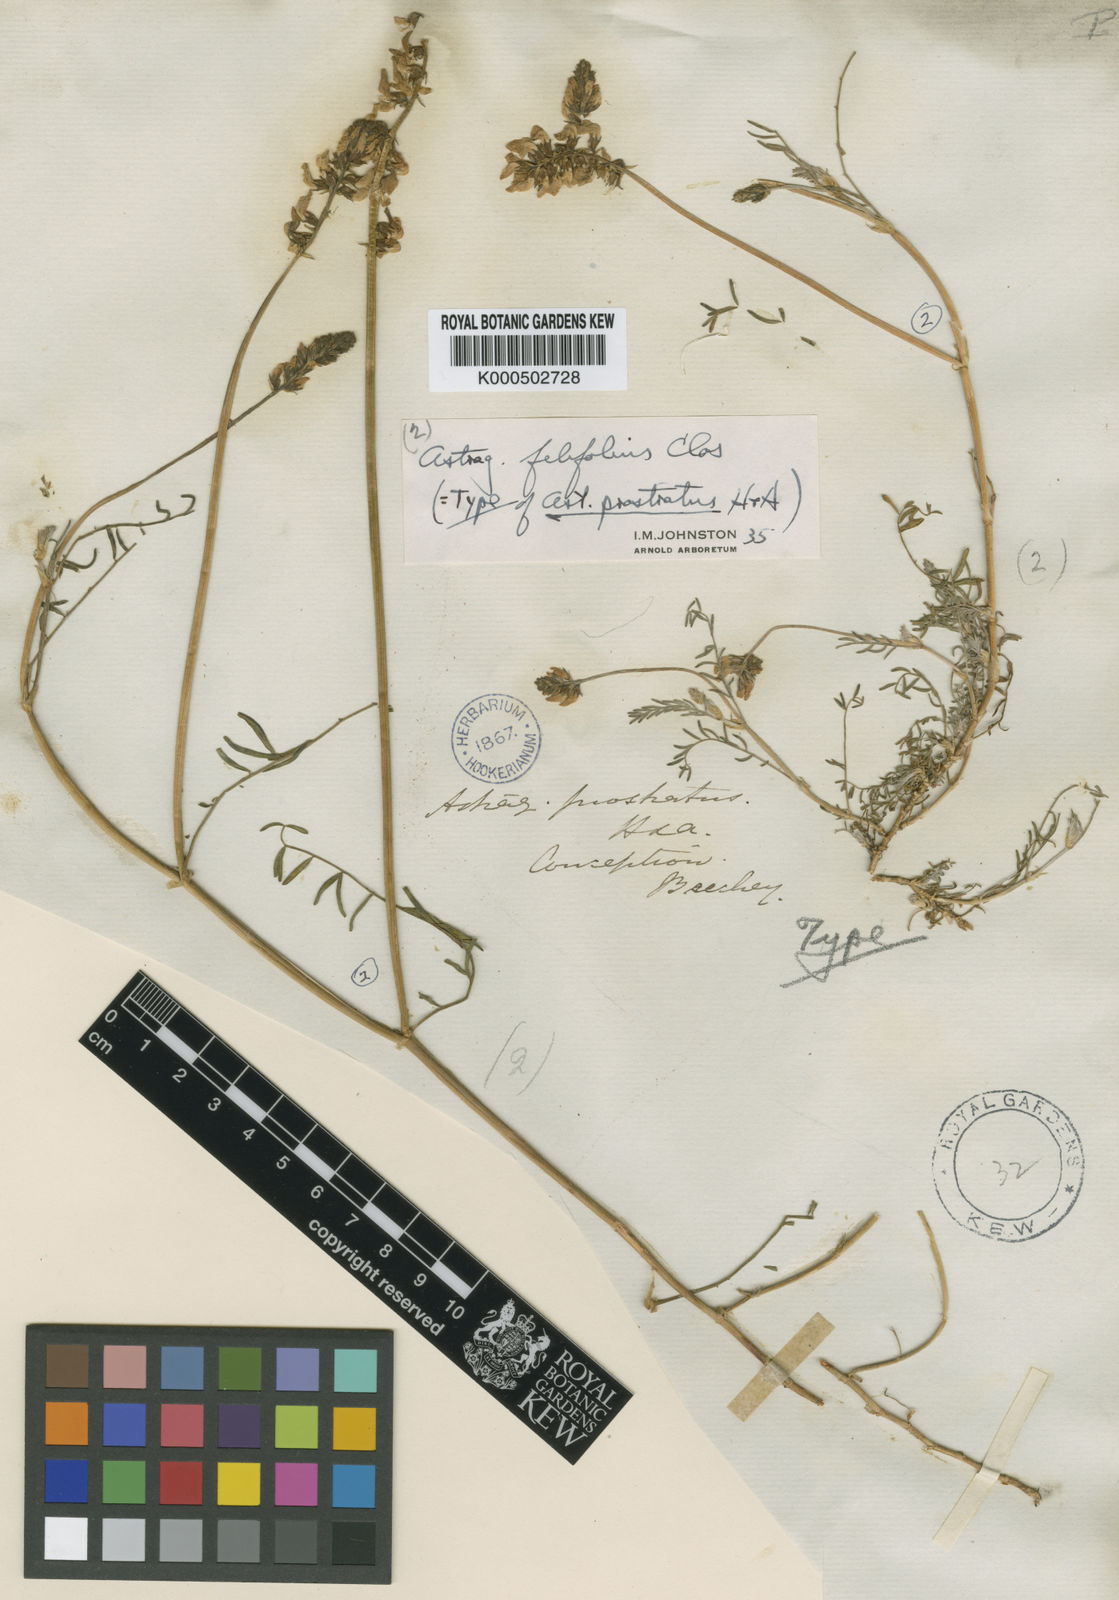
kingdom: Plantae
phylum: Tracheophyta
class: Magnoliopsida
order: Fabales
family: Fabaceae
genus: Astragalus
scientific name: Astragalus berteroi
